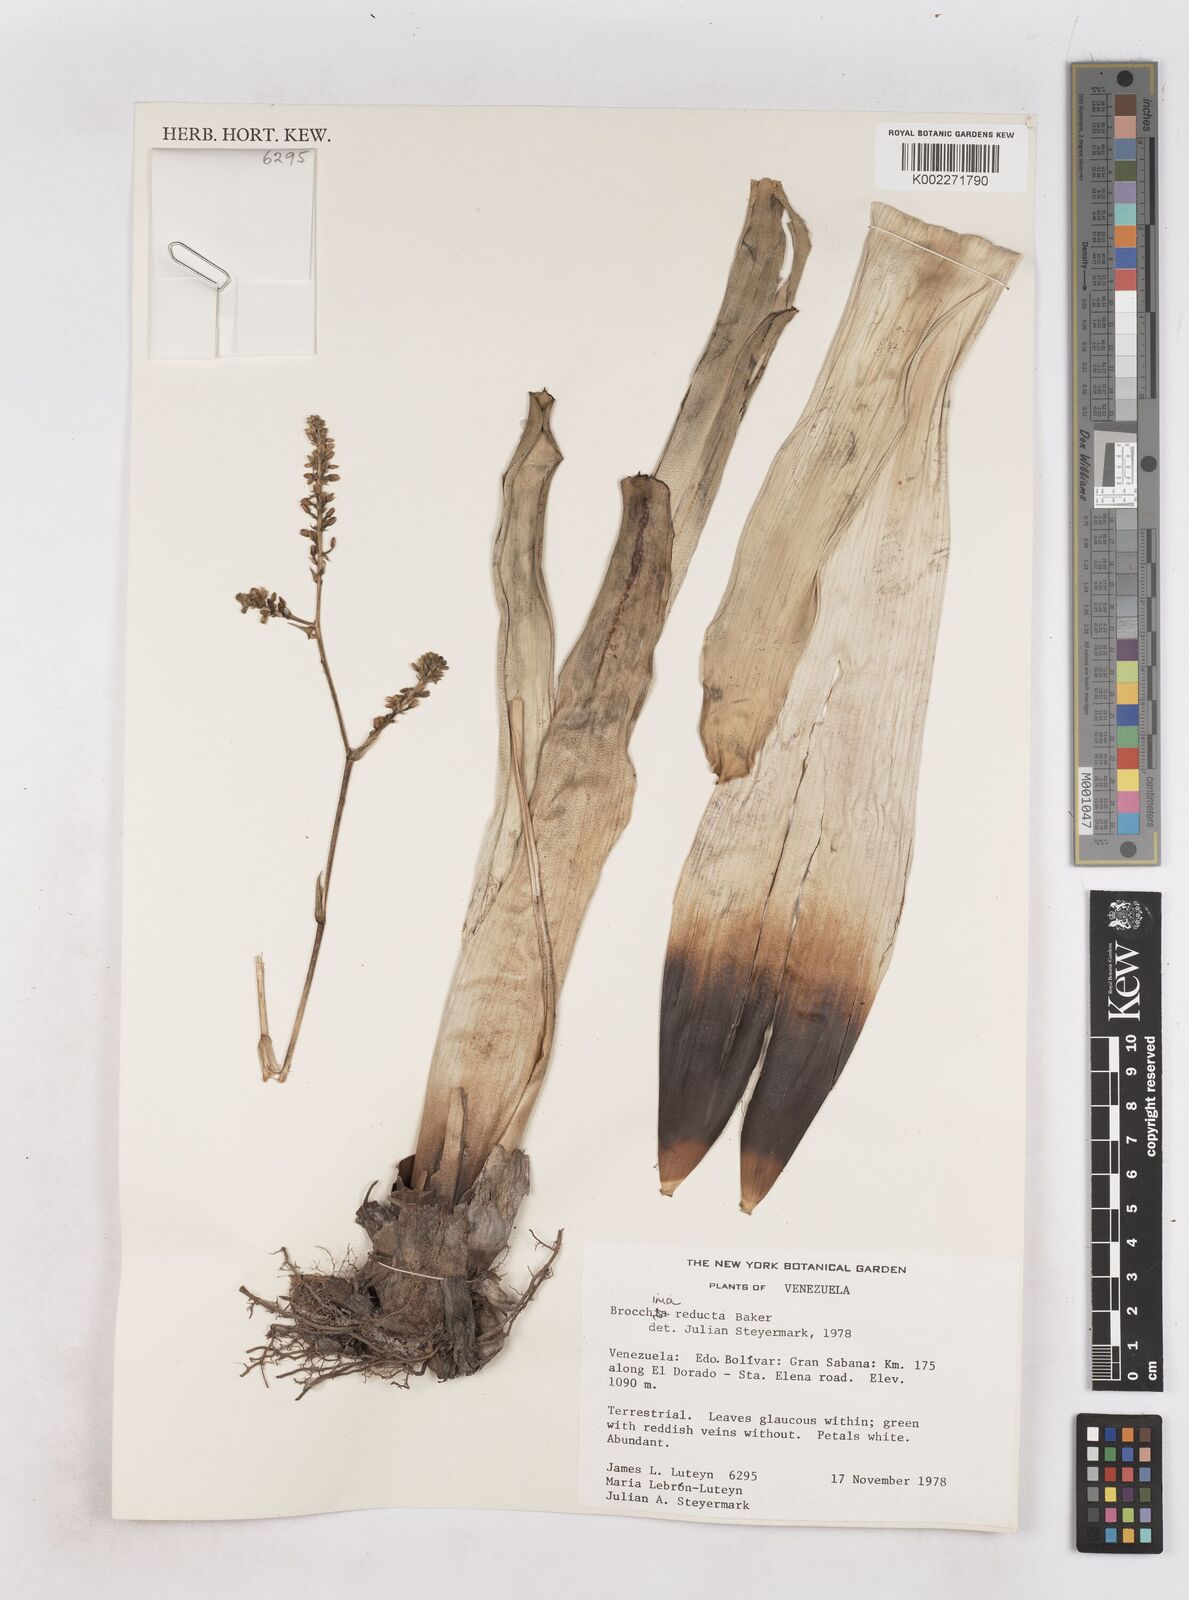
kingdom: Plantae
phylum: Tracheophyta
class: Liliopsida
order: Poales
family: Bromeliaceae
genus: Brocchinia
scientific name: Brocchinia reducta
